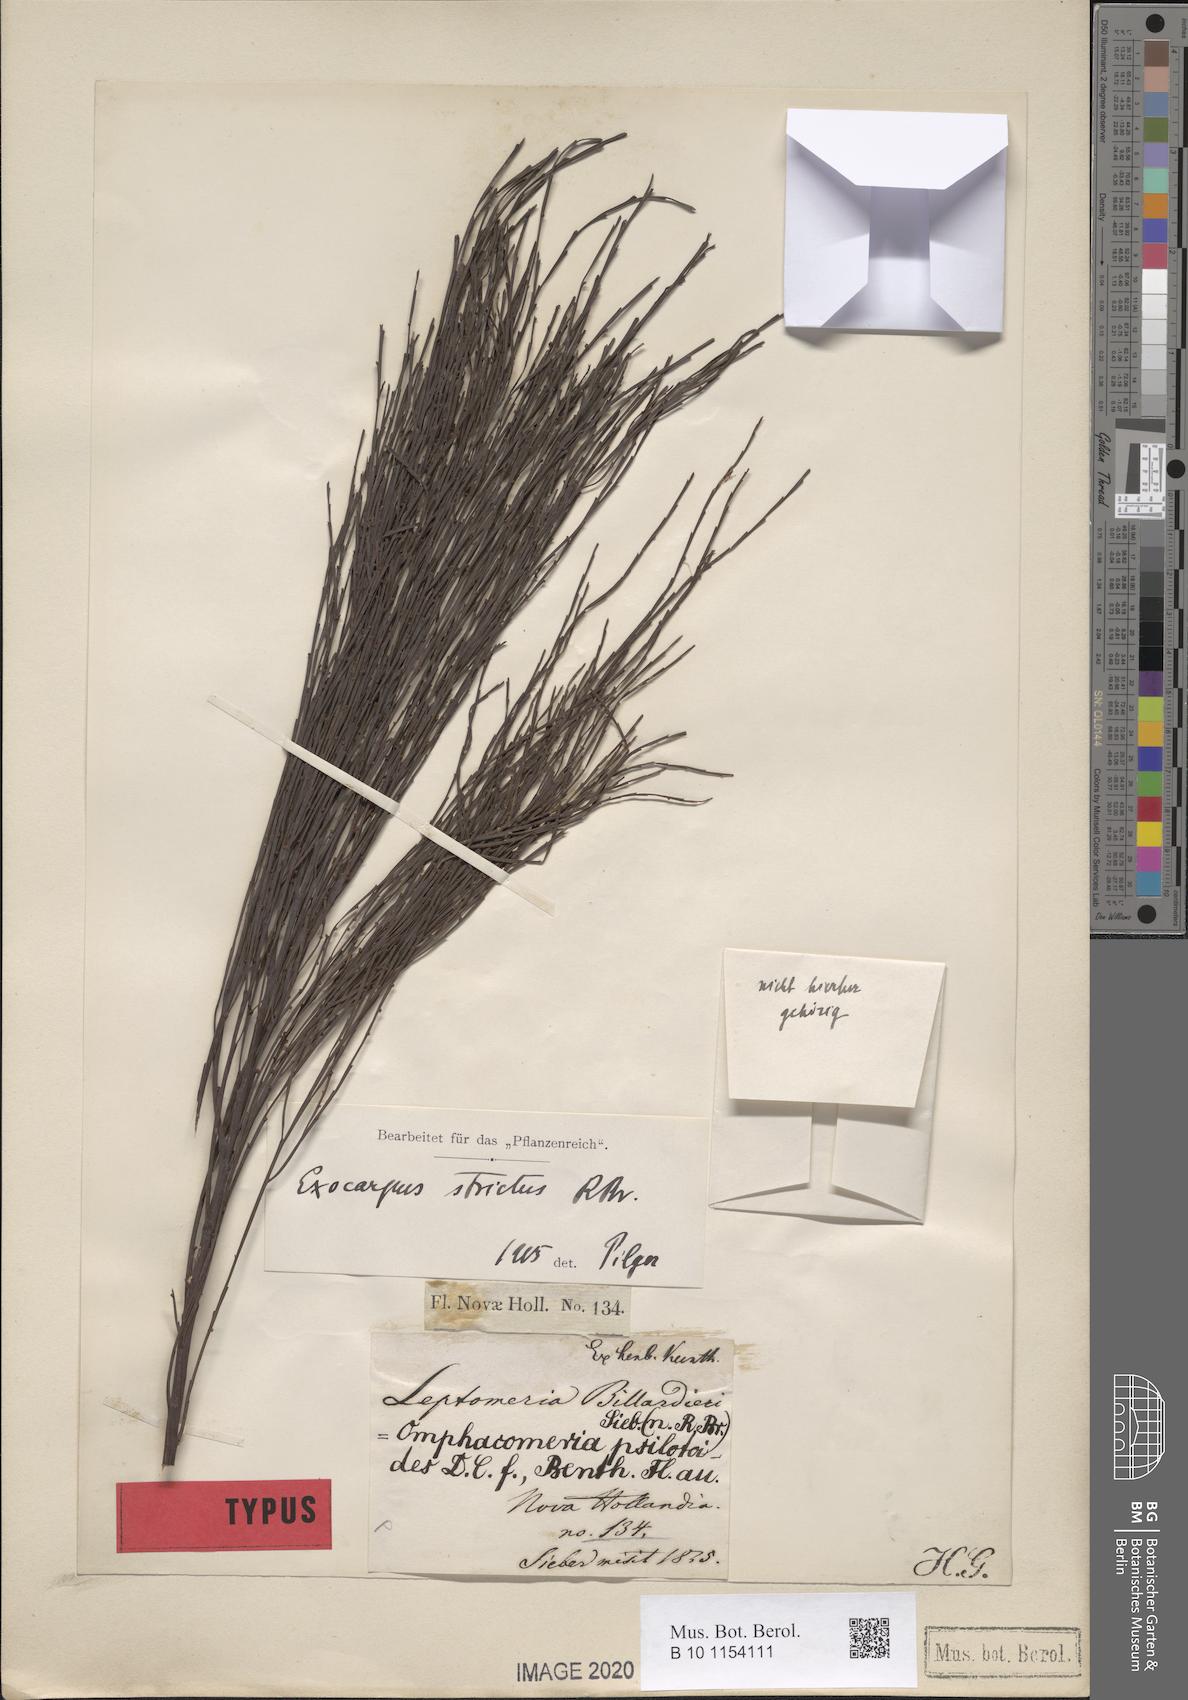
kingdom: Plantae
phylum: Tracheophyta
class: Magnoliopsida
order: Santalales
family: Santalaceae
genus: Exocarpos
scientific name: Exocarpos strictus
